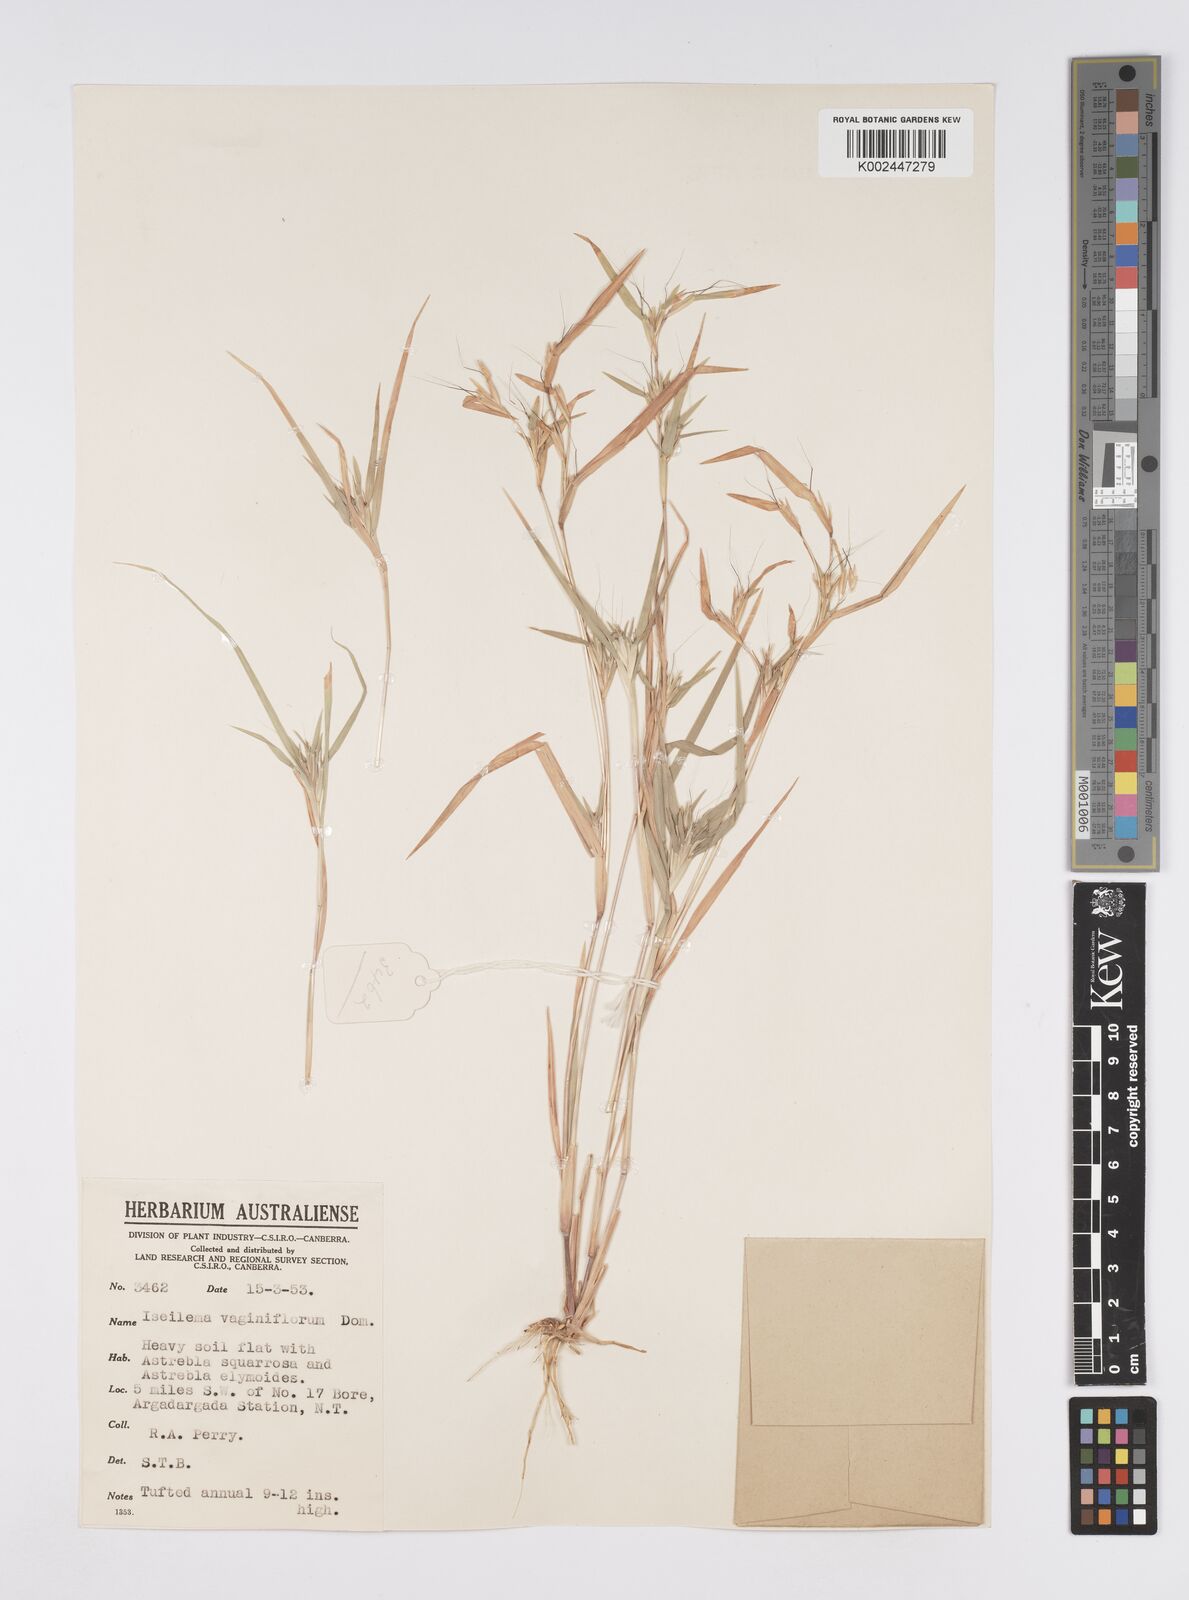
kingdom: Plantae
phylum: Tracheophyta
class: Liliopsida
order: Poales
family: Poaceae
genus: Iseilema
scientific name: Iseilema vaginiflorum
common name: Red flinders grass
